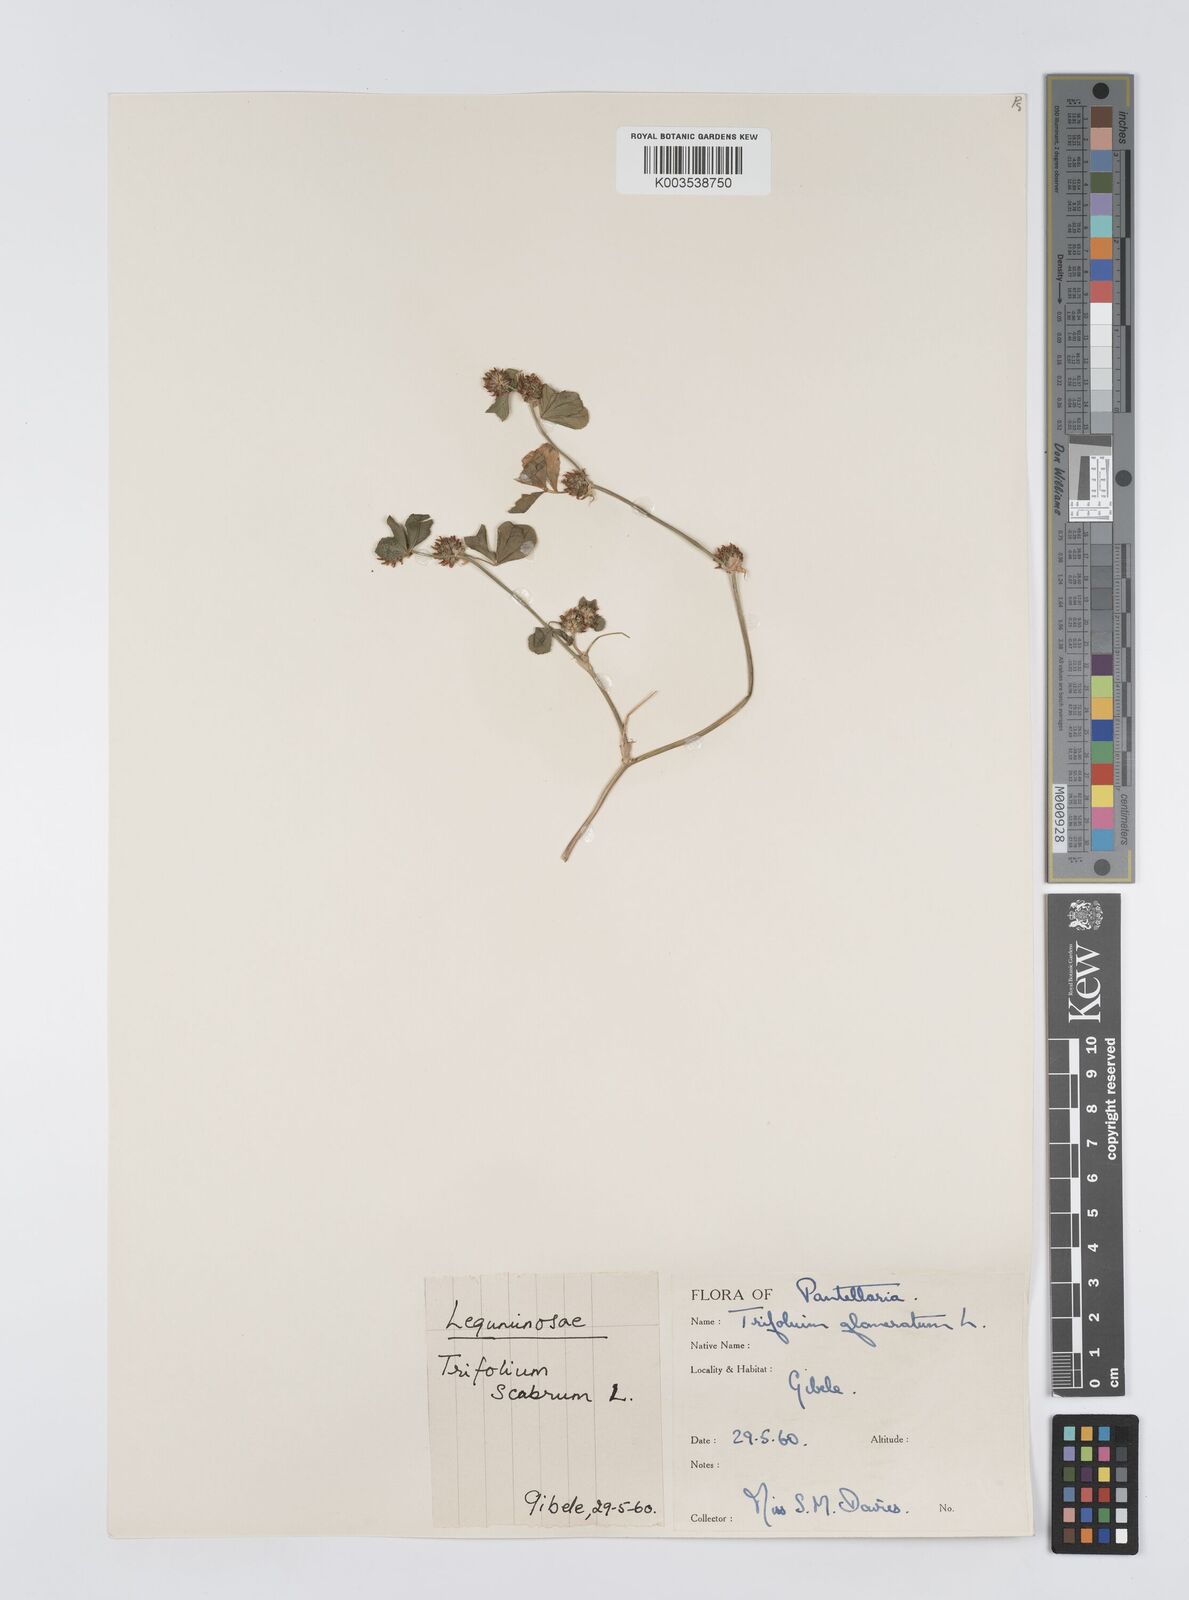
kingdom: Plantae
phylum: Tracheophyta
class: Magnoliopsida
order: Fabales
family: Fabaceae
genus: Trifolium
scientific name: Trifolium glomeratum
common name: Clustered clover
